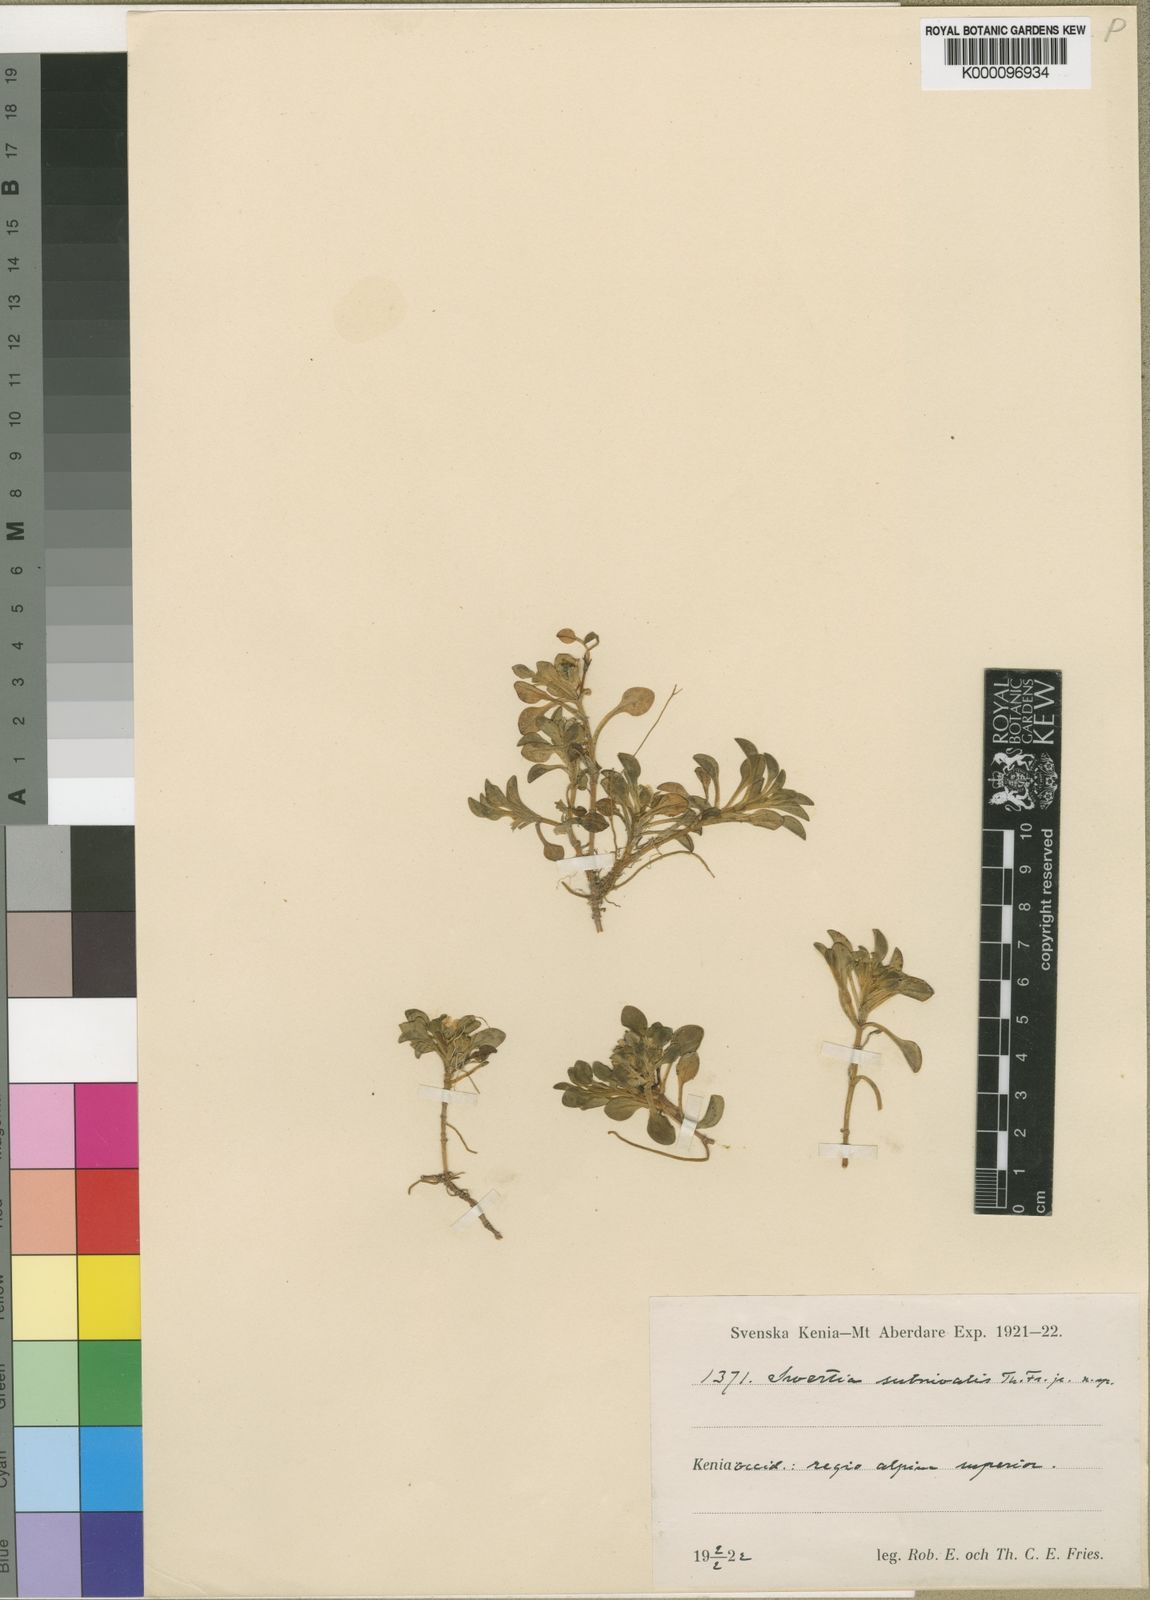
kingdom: Plantae
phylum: Tracheophyta
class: Magnoliopsida
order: Gentianales
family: Gentianaceae
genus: Swertia
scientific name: Swertia subnivalis
